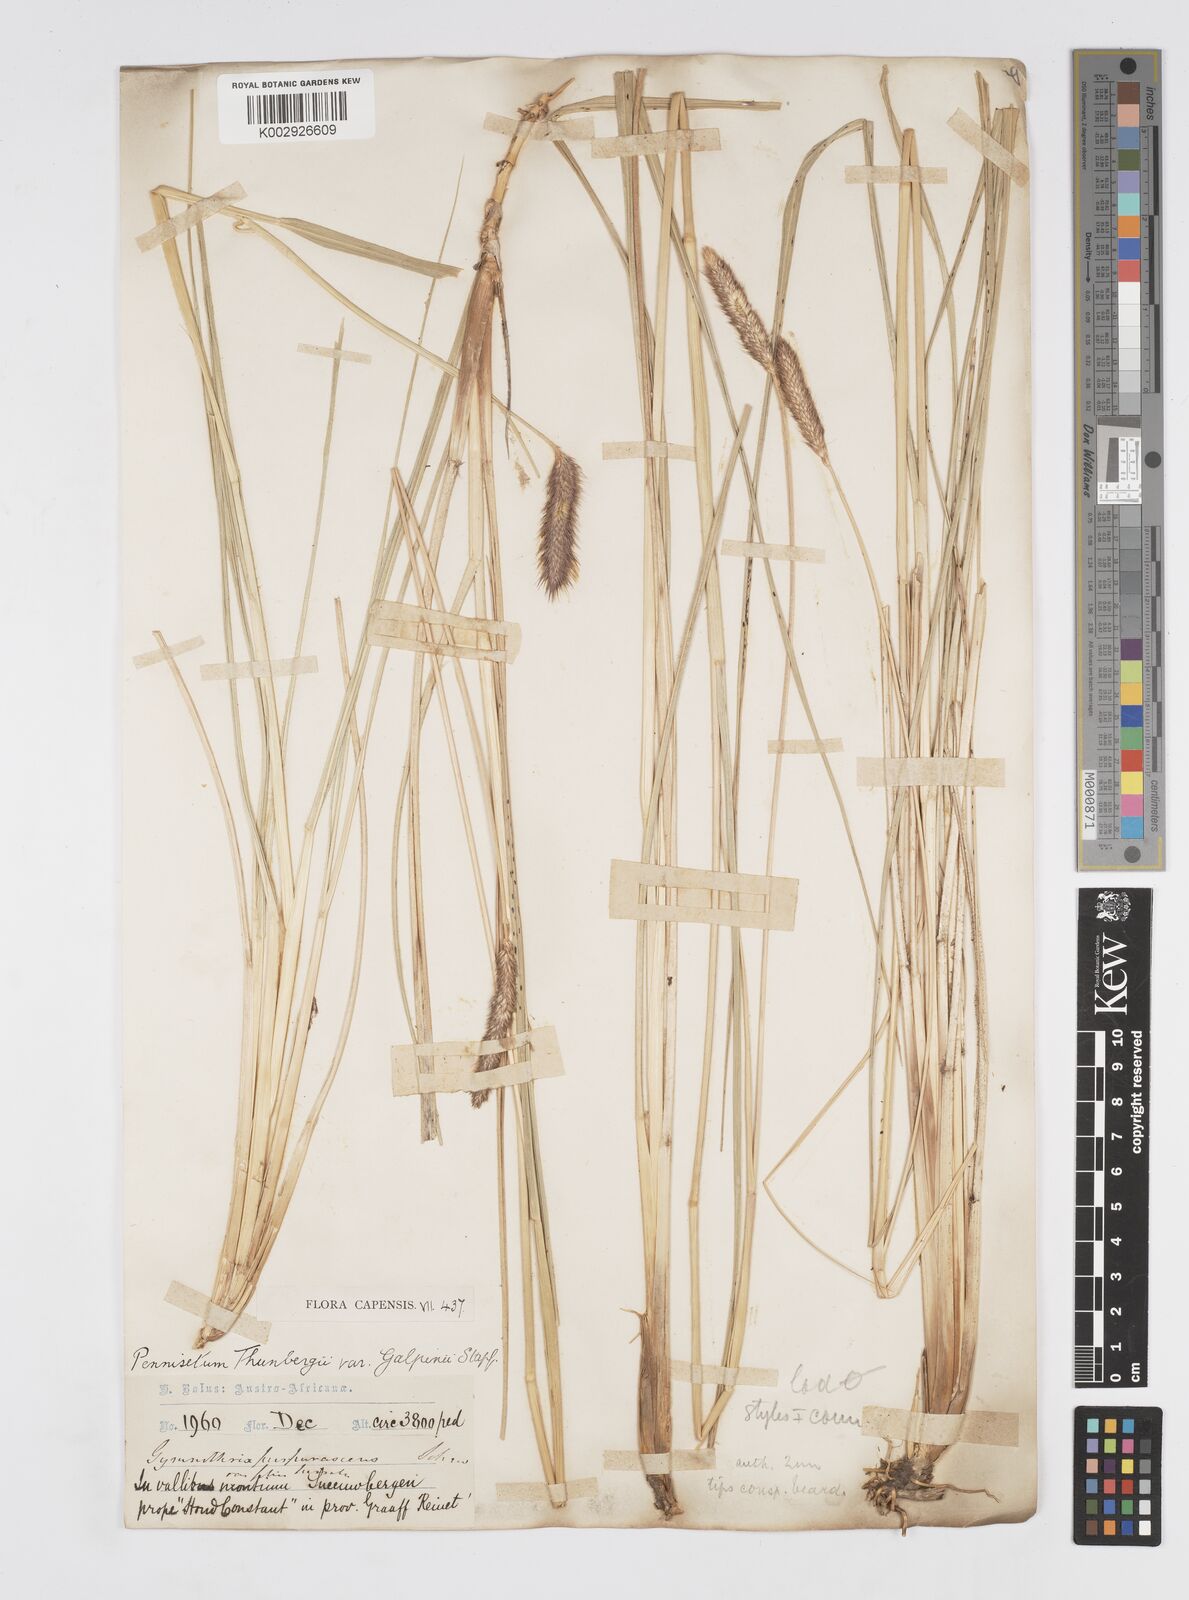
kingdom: Plantae
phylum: Tracheophyta
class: Liliopsida
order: Poales
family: Poaceae
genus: Cenchrus
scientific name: Cenchrus geniculatus
